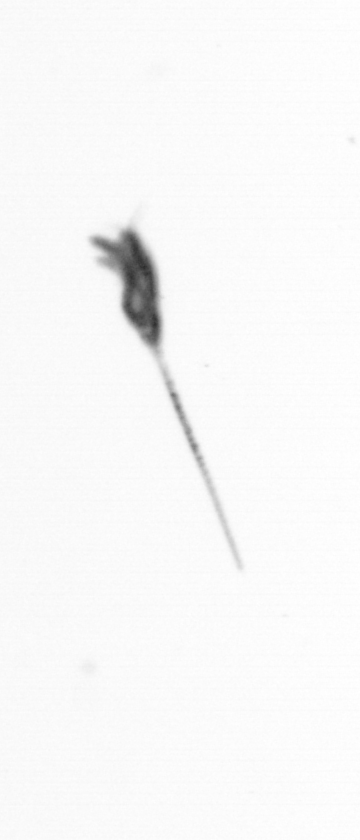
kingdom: Animalia
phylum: Arthropoda
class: Copepoda
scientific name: Copepoda
